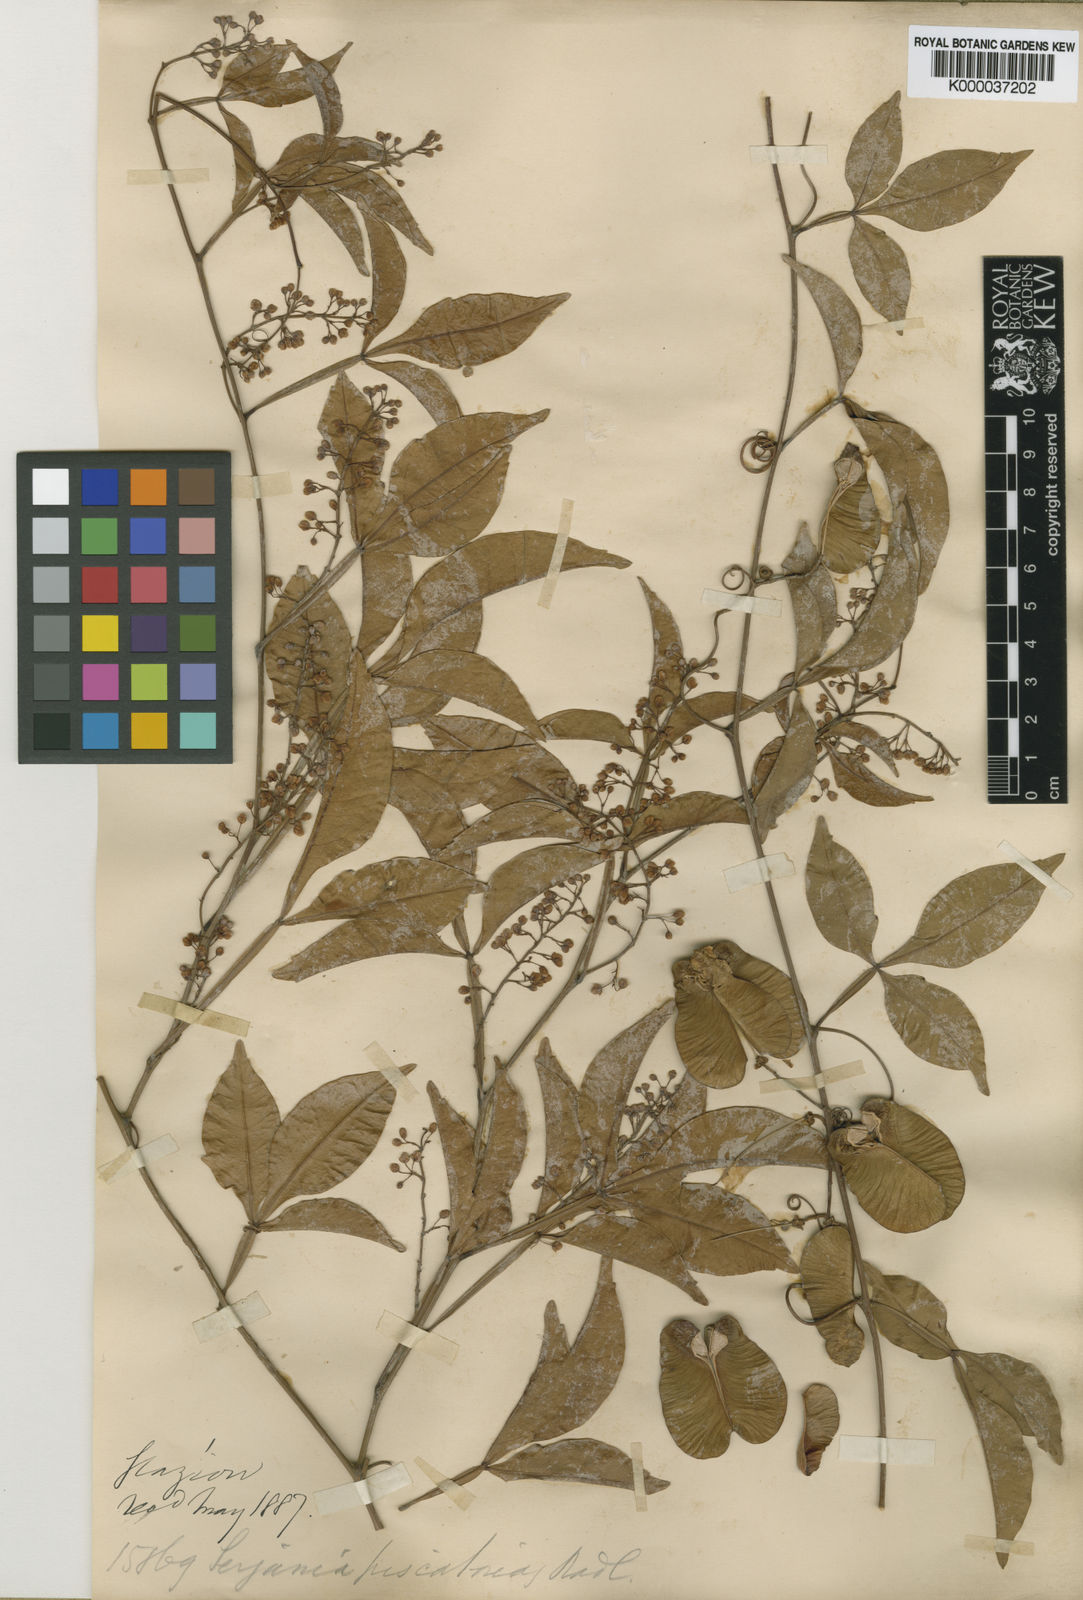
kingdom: Plantae
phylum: Tracheophyta
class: Magnoliopsida
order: Sapindales
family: Sapindaceae
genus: Serjania
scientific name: Serjania piscatoria
